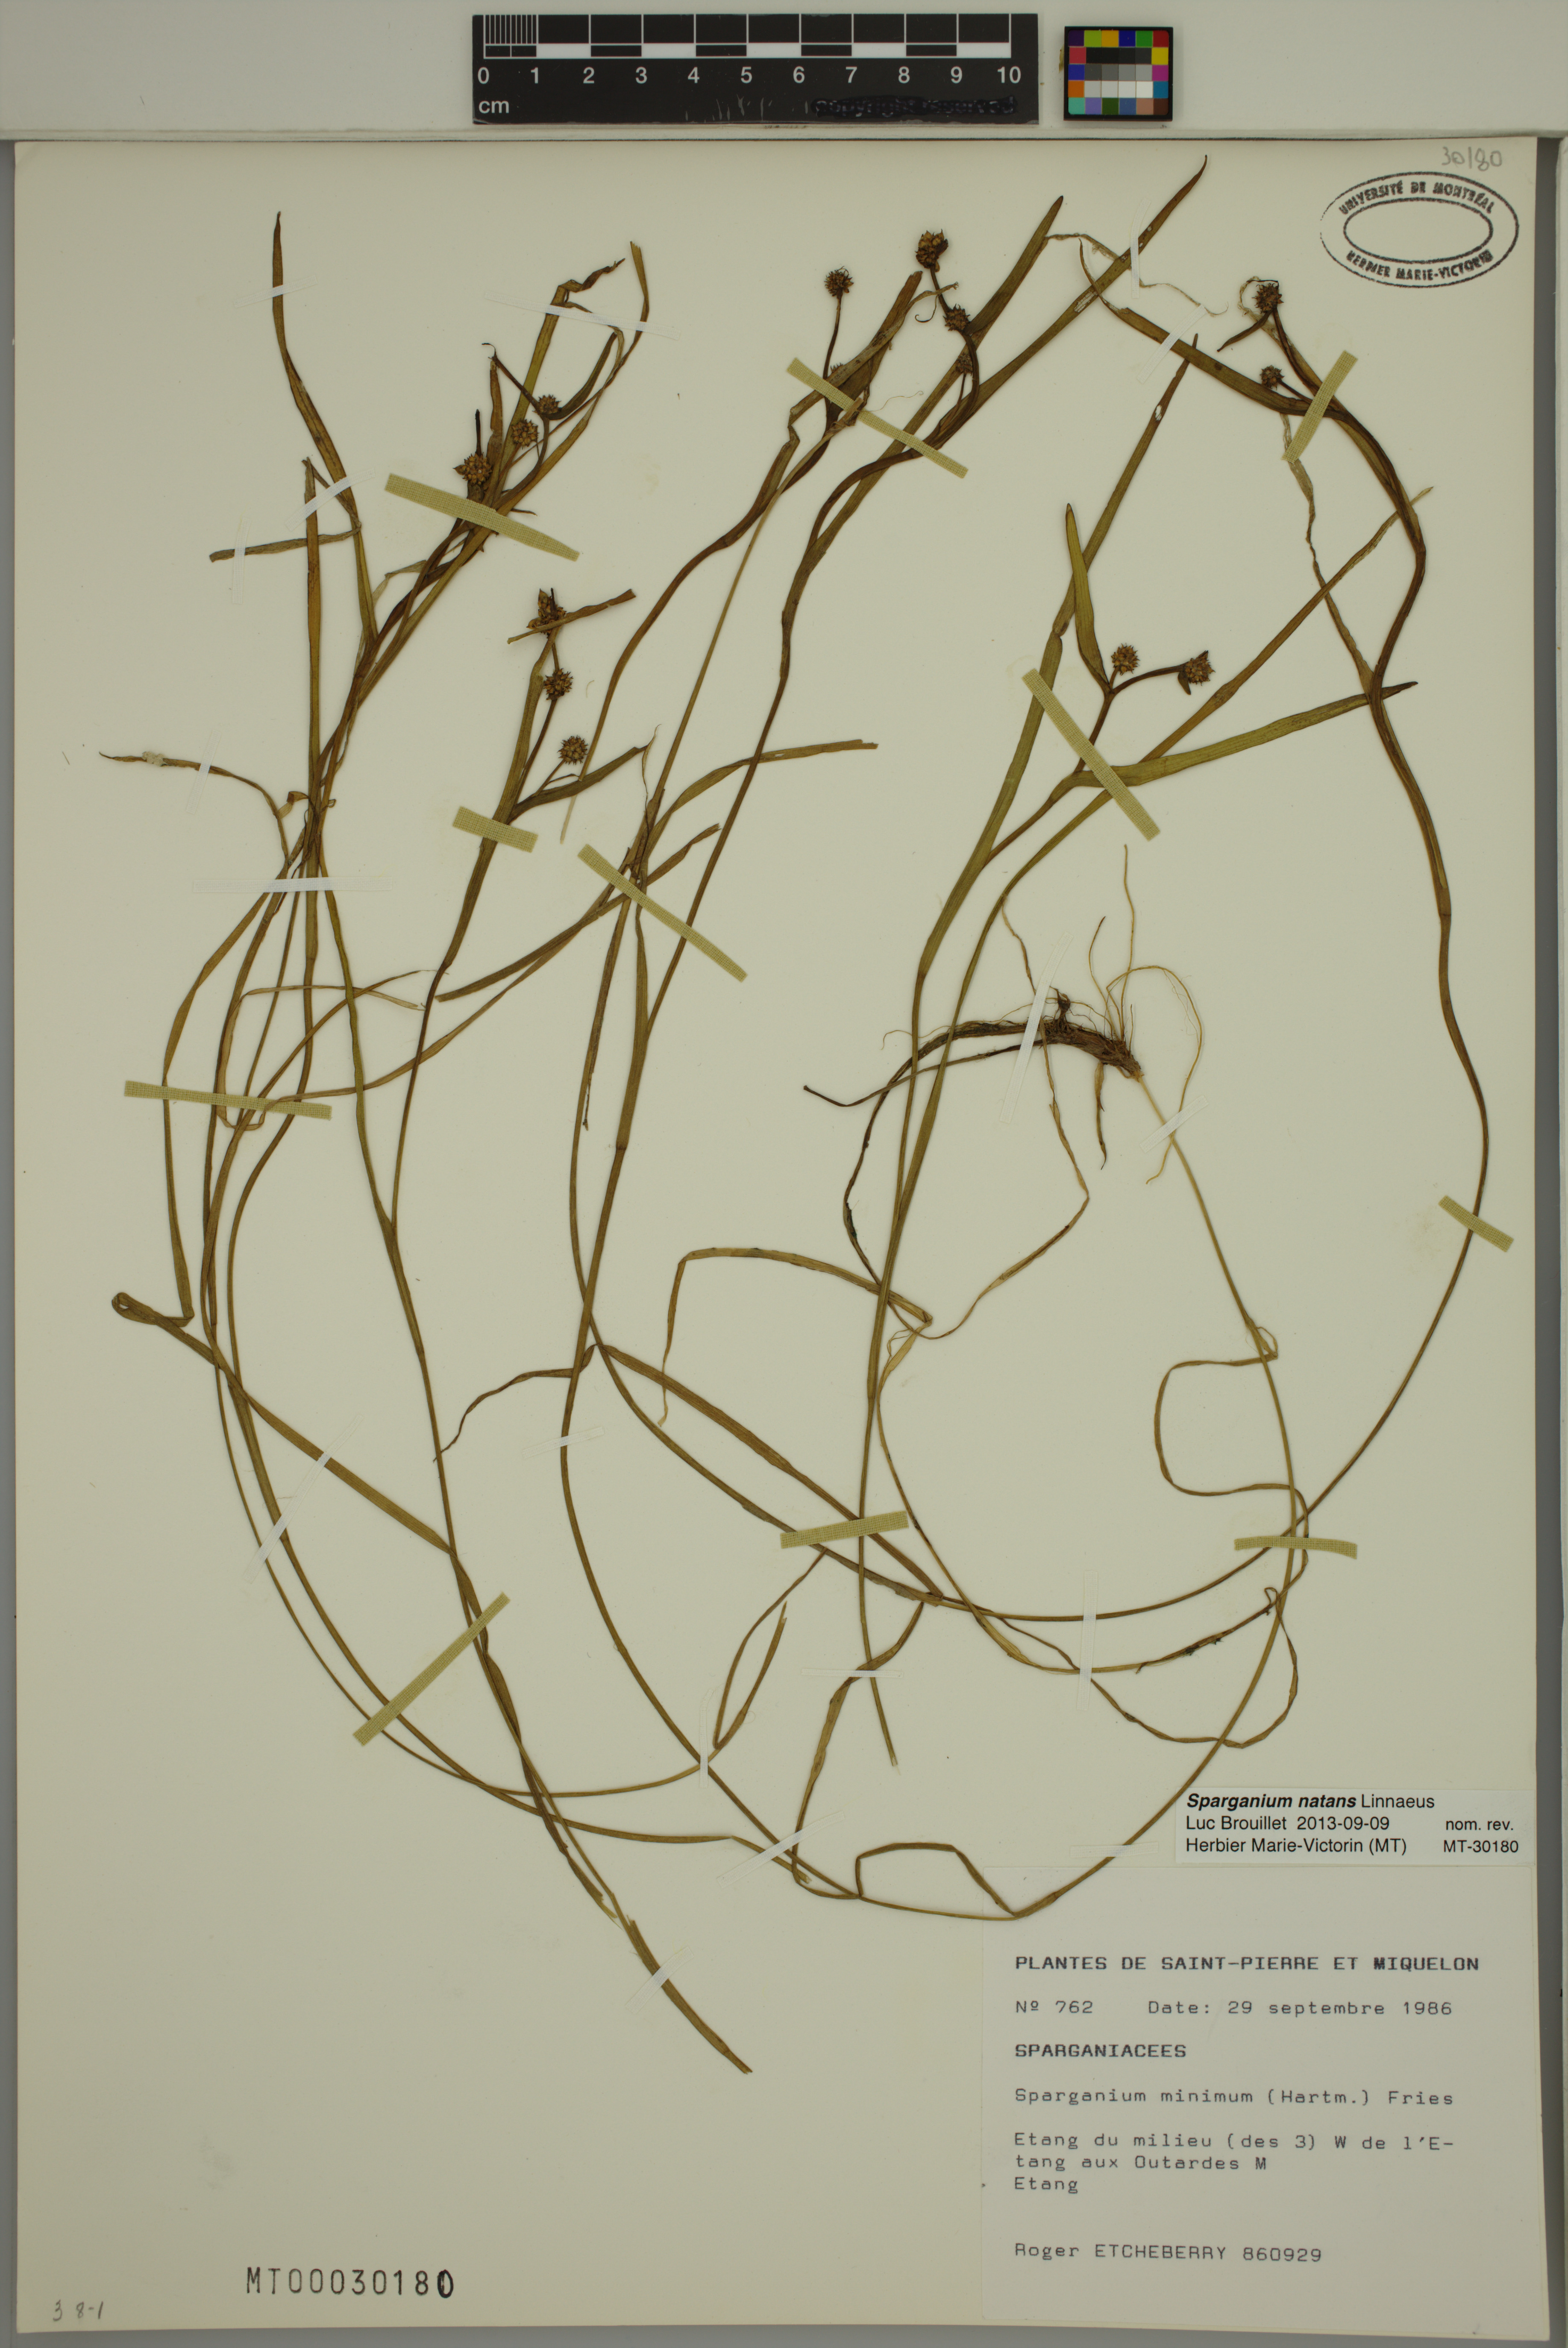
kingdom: Plantae
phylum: Tracheophyta
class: Liliopsida
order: Poales
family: Typhaceae
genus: Sparganium
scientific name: Sparganium natans
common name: Least bur-reed
